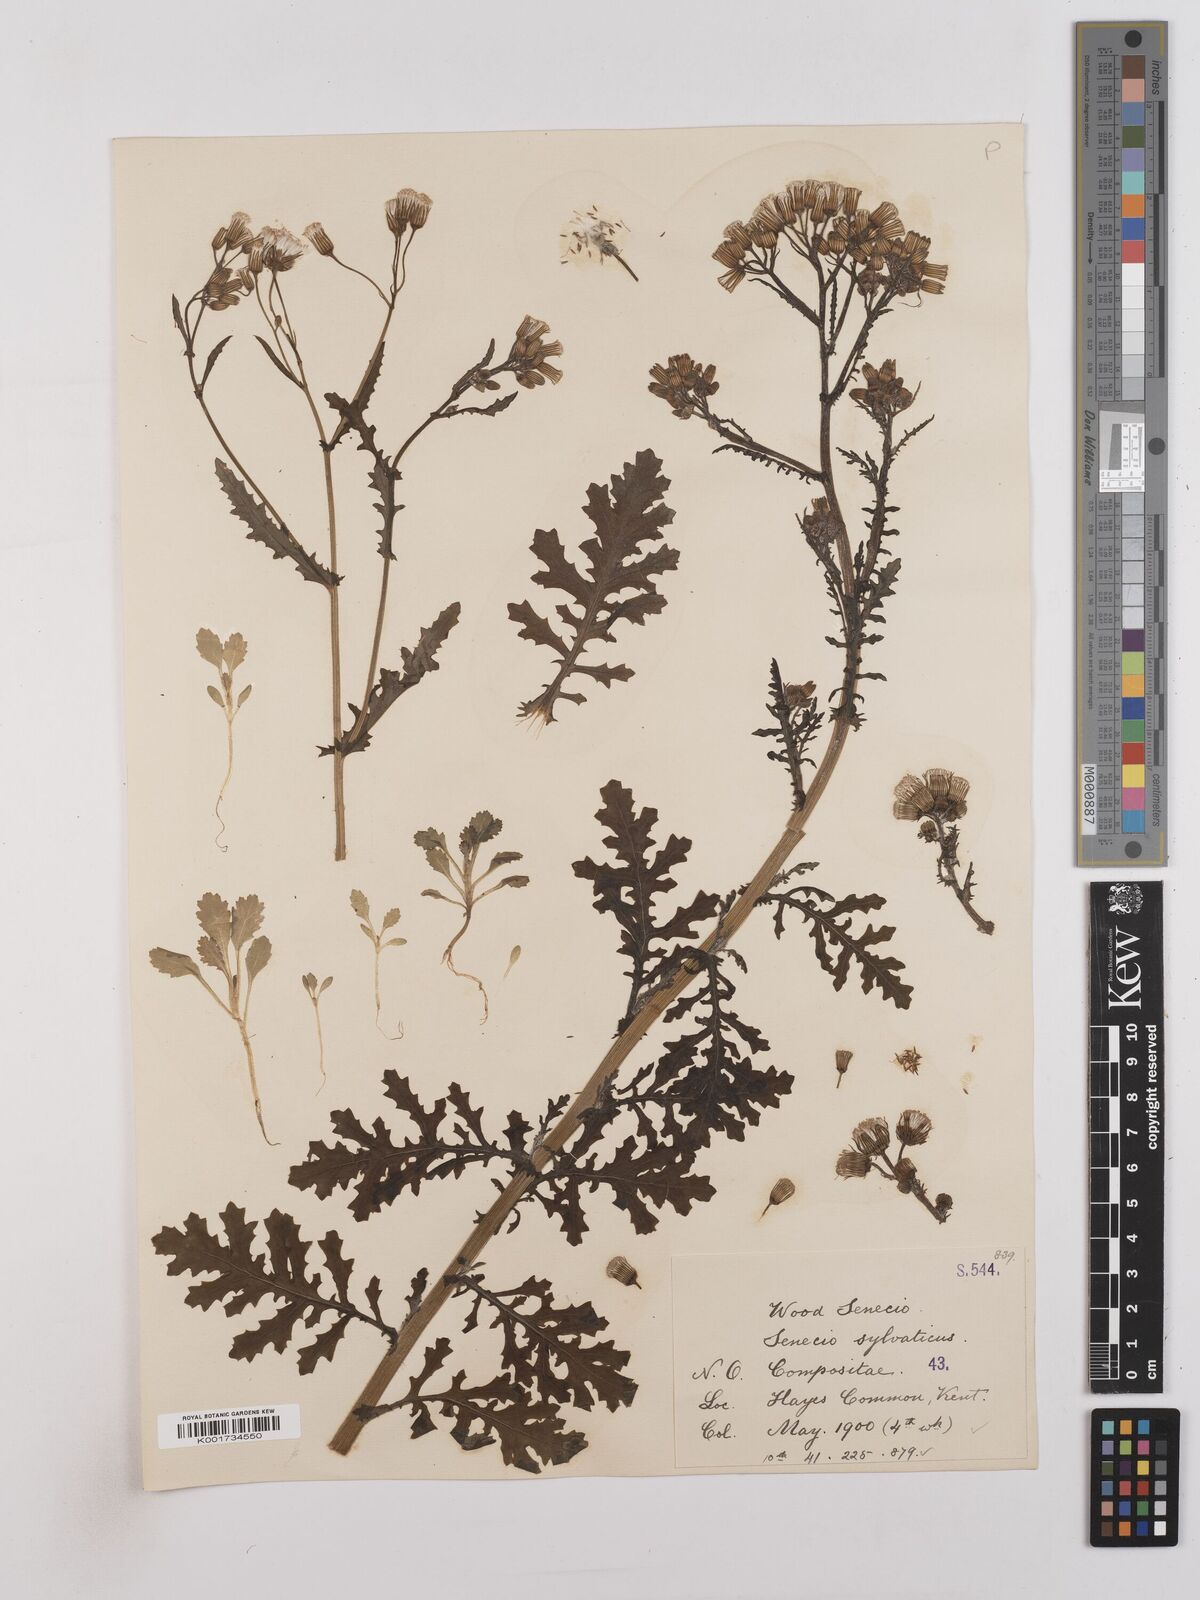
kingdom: Plantae
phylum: Tracheophyta
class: Magnoliopsida
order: Asterales
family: Asteraceae
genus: Senecio
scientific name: Senecio sylvaticus
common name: Woodland ragwort
